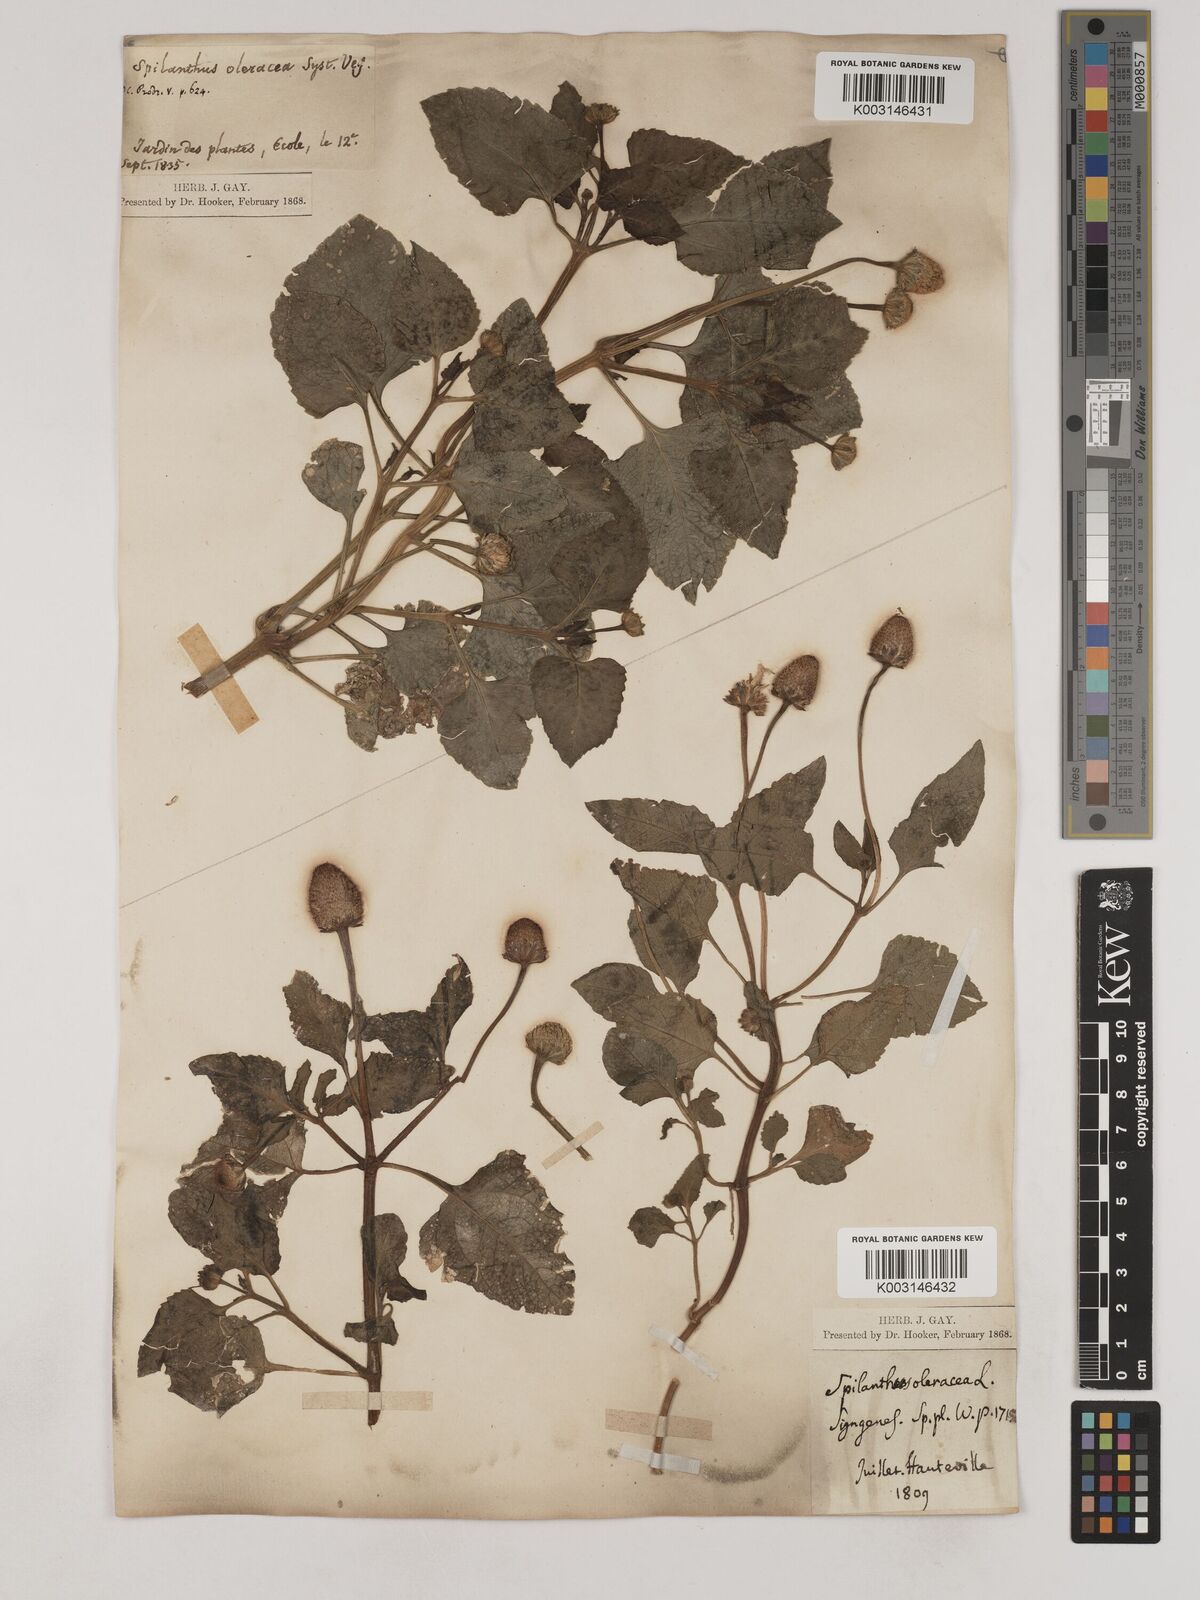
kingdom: Plantae
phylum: Tracheophyta
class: Magnoliopsida
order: Asterales
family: Asteraceae
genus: Acmella
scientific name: Acmella oleracea
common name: Brazilian cress
